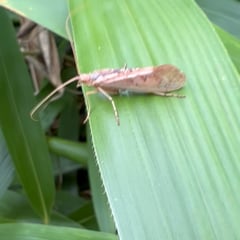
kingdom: Animalia
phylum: Arthropoda
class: Insecta
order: Trichoptera
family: Limnephilidae
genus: Limnephilus
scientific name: Limnephilus flavicornis
